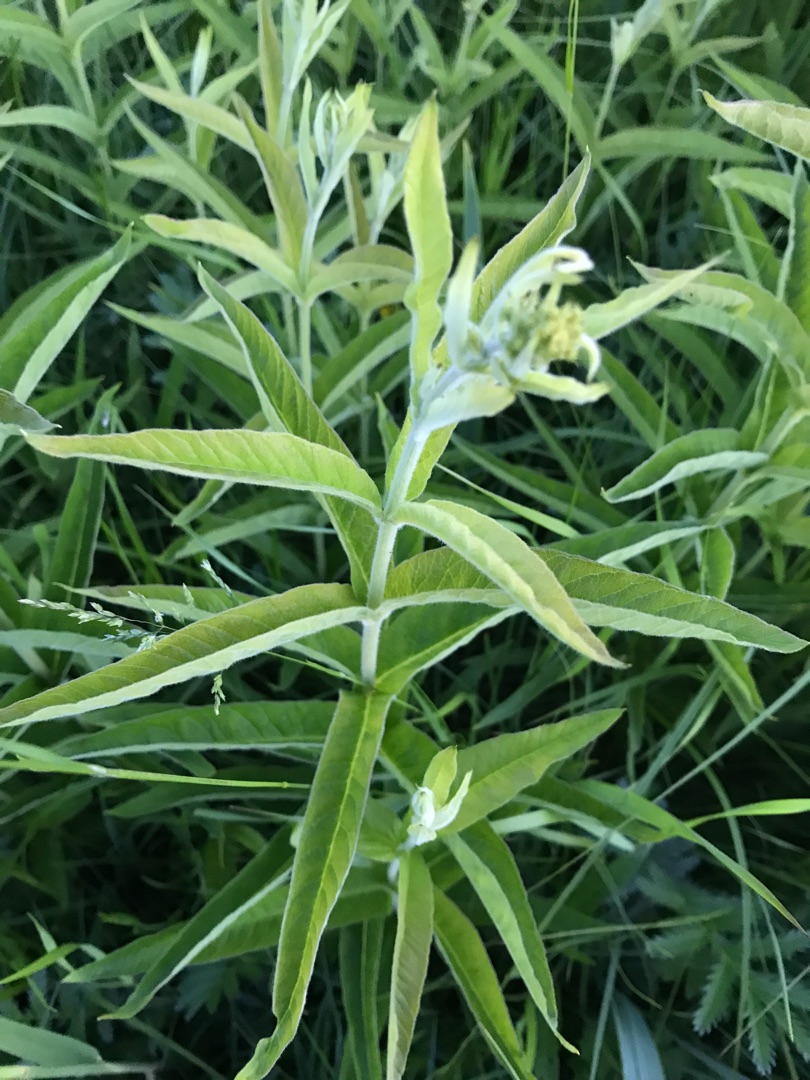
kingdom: Plantae
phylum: Tracheophyta
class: Magnoliopsida
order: Ericales
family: Primulaceae
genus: Lysimachia
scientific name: Lysimachia vulgaris
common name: Almindelig fredløs
